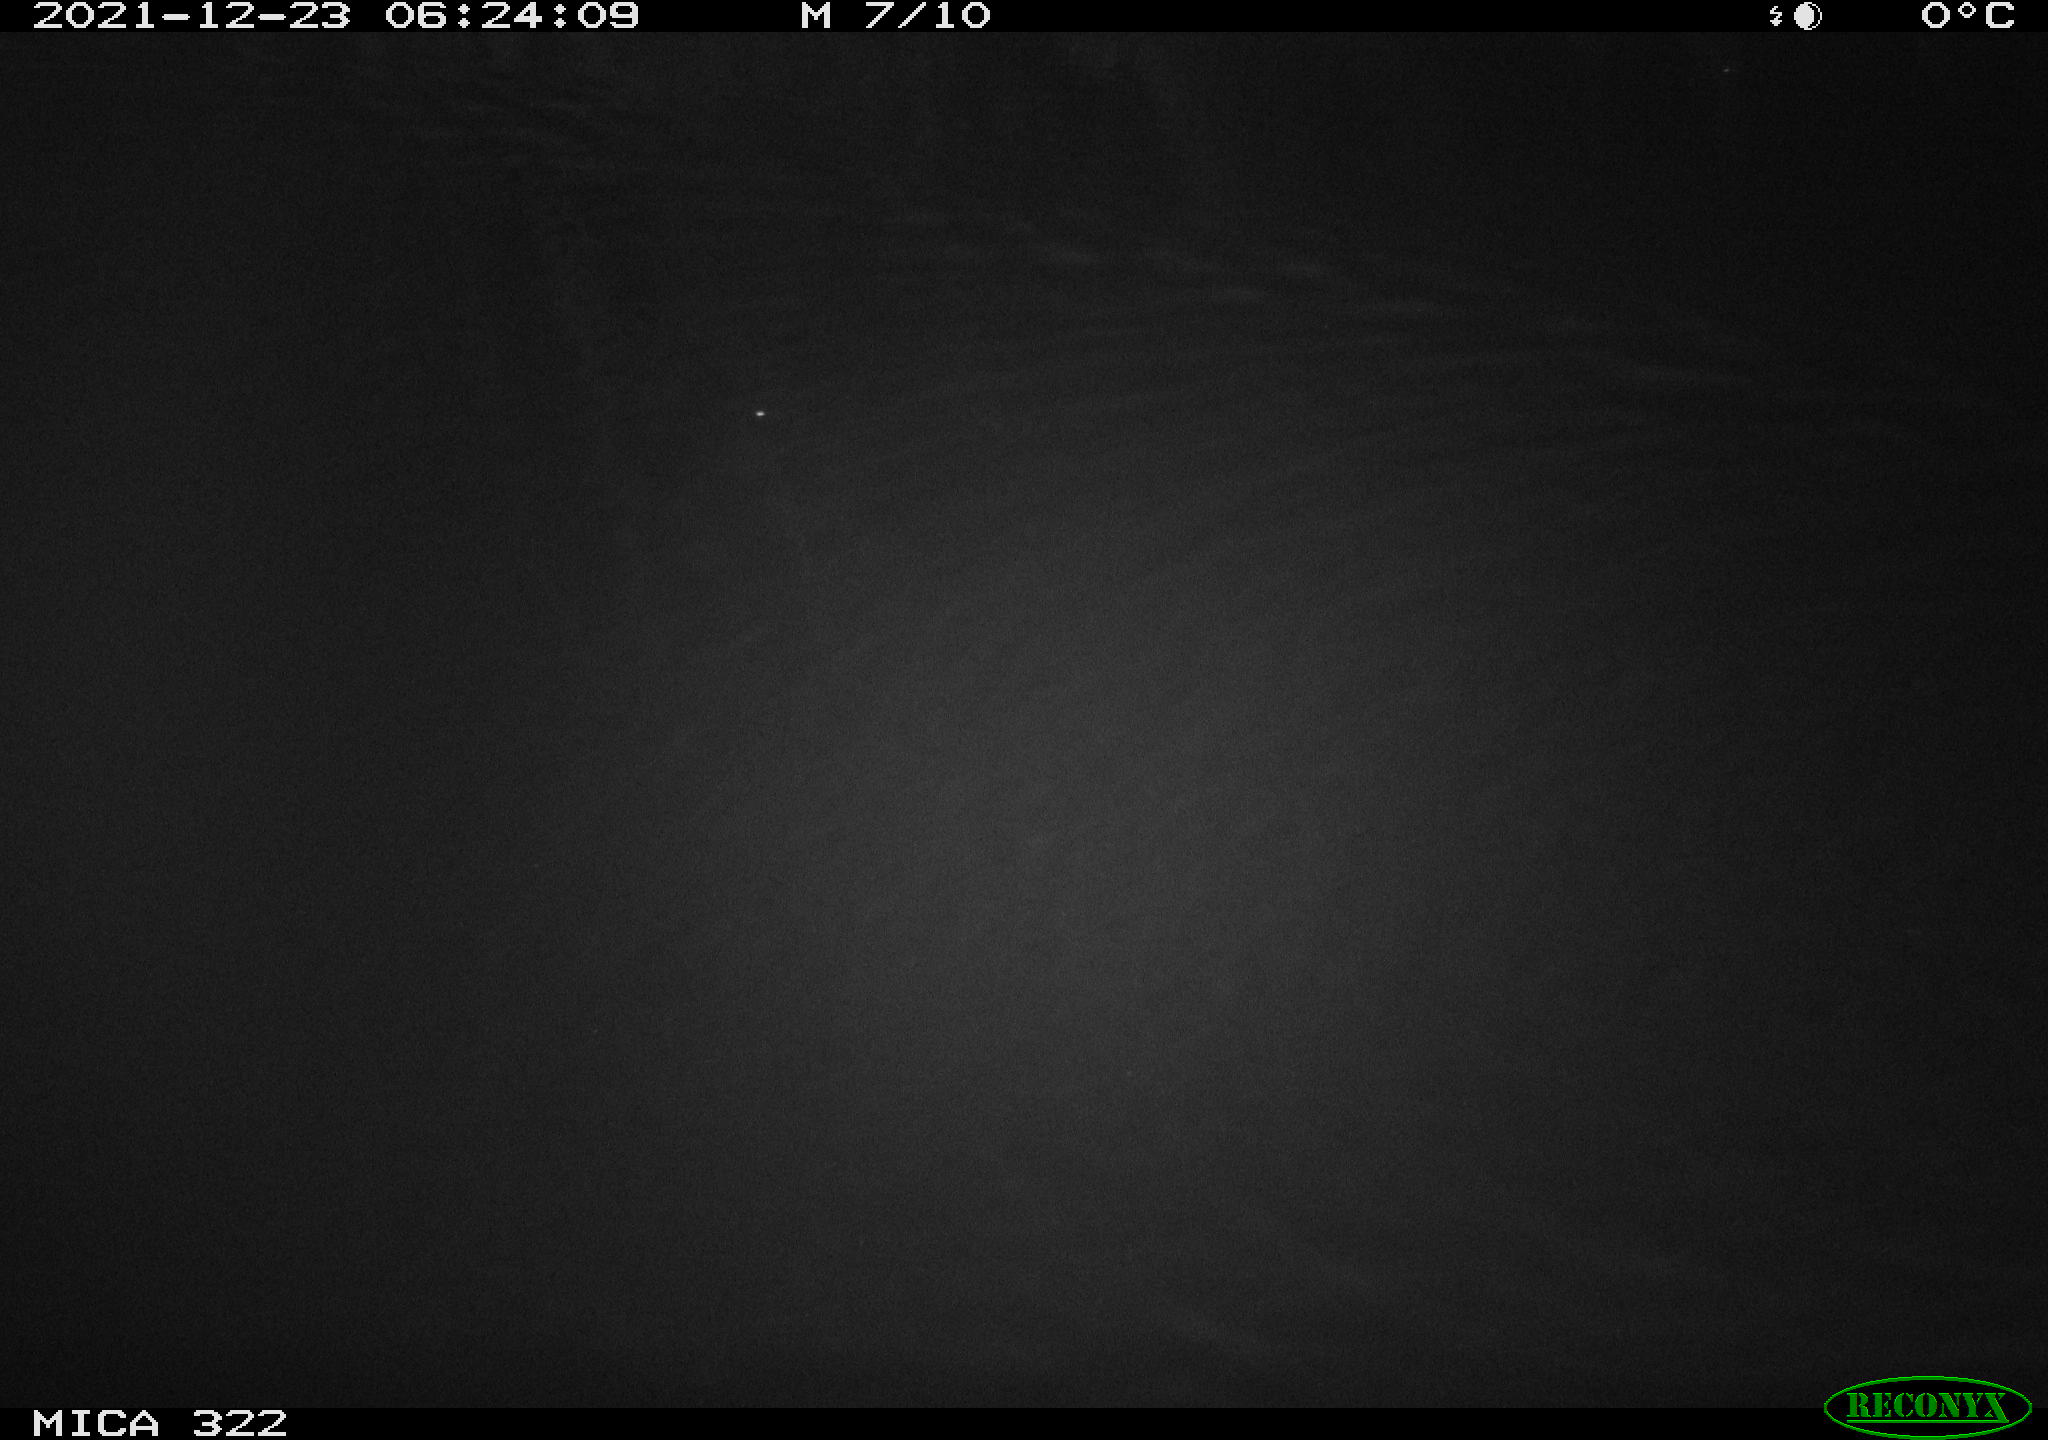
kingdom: Animalia
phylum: Chordata
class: Mammalia
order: Rodentia
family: Muridae
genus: Rattus
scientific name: Rattus norvegicus
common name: Brown rat
